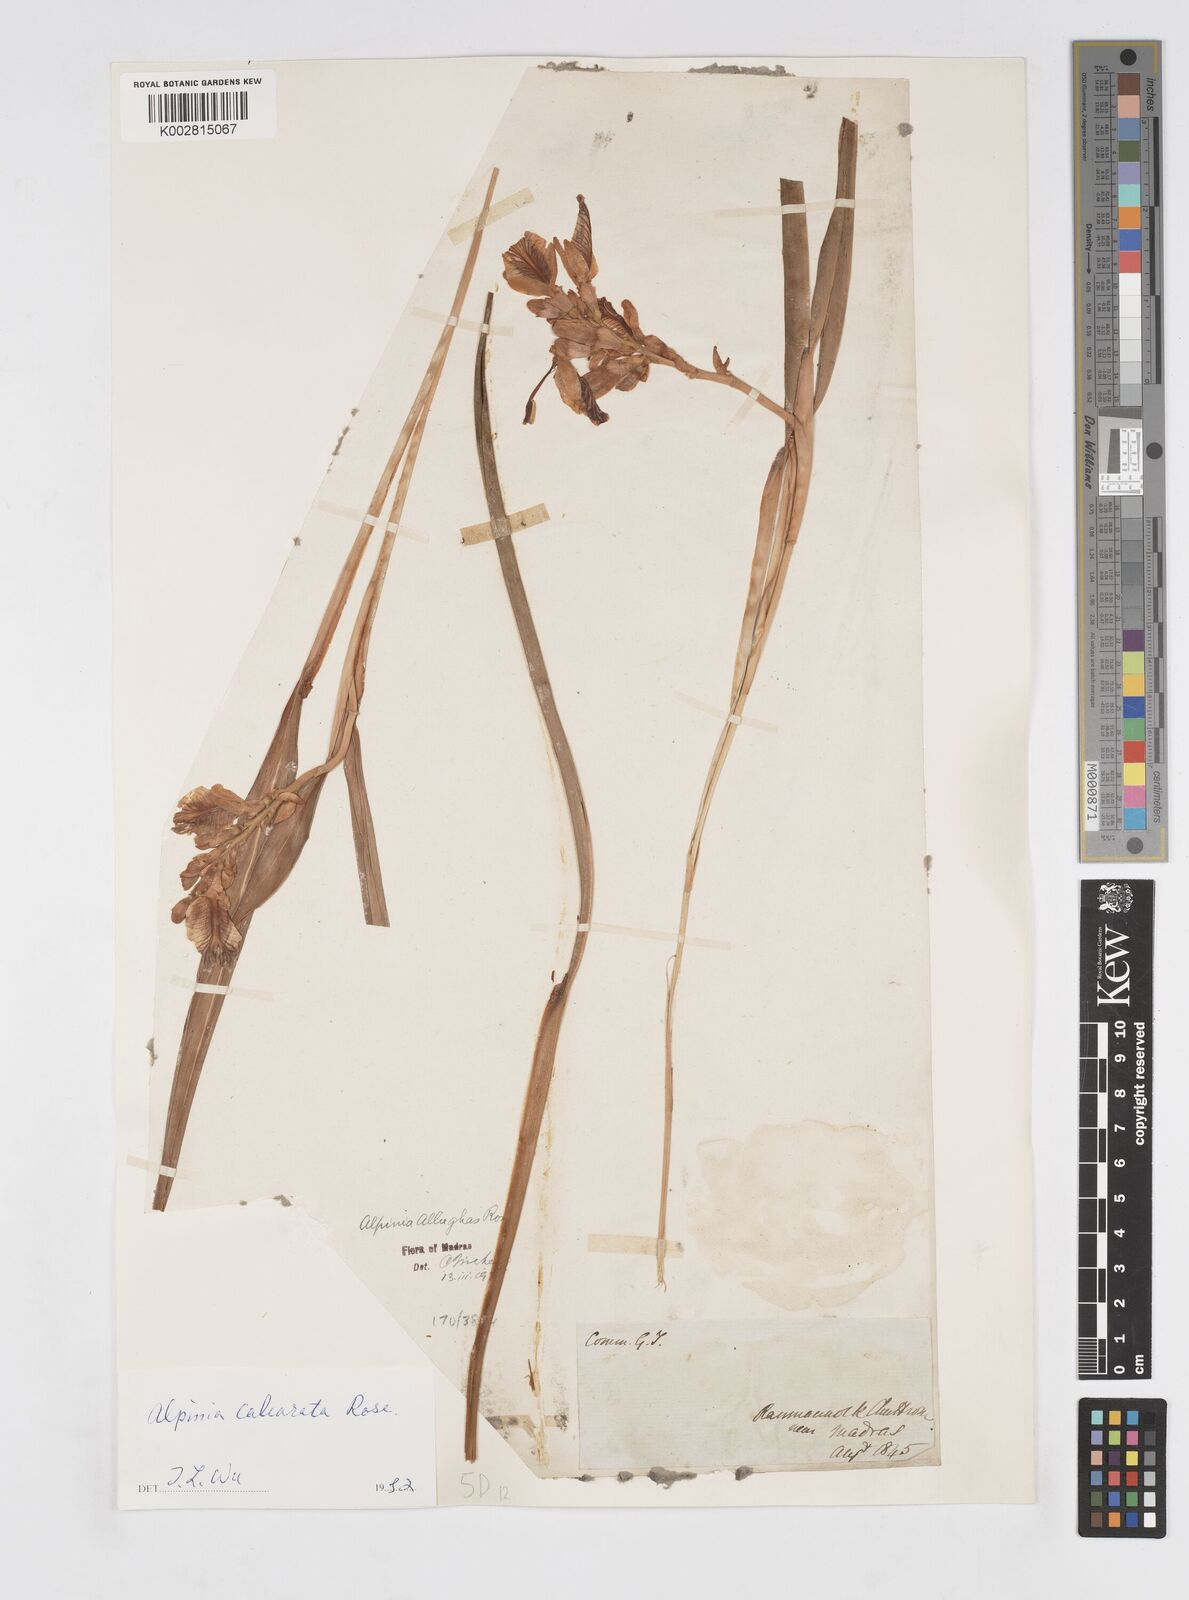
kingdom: Plantae
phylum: Tracheophyta
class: Liliopsida
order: Zingiberales
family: Zingiberaceae
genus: Alpinia
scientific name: Alpinia calcarata
